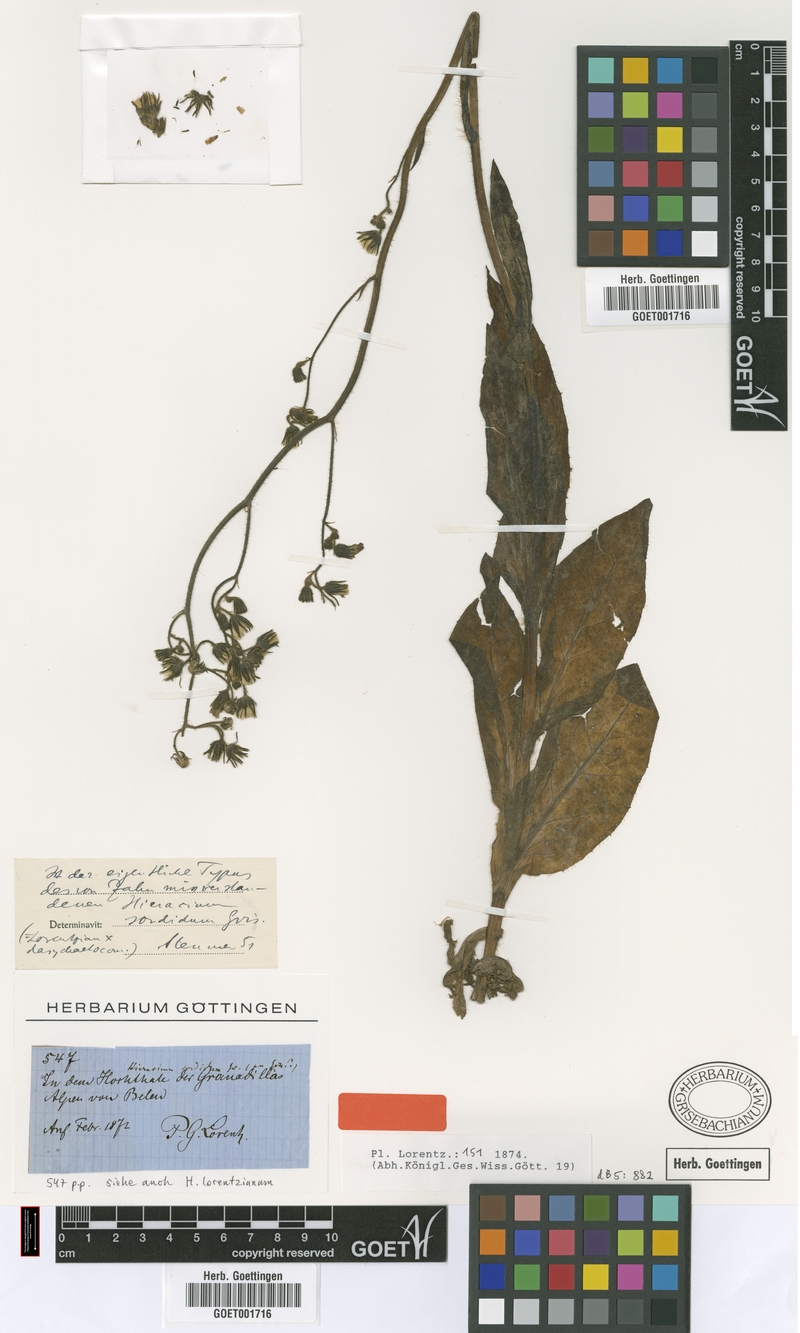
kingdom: Plantae
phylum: Tracheophyta
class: Magnoliopsida
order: Asterales
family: Asteraceae
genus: Hieracium
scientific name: Hieracium streptochaetum
